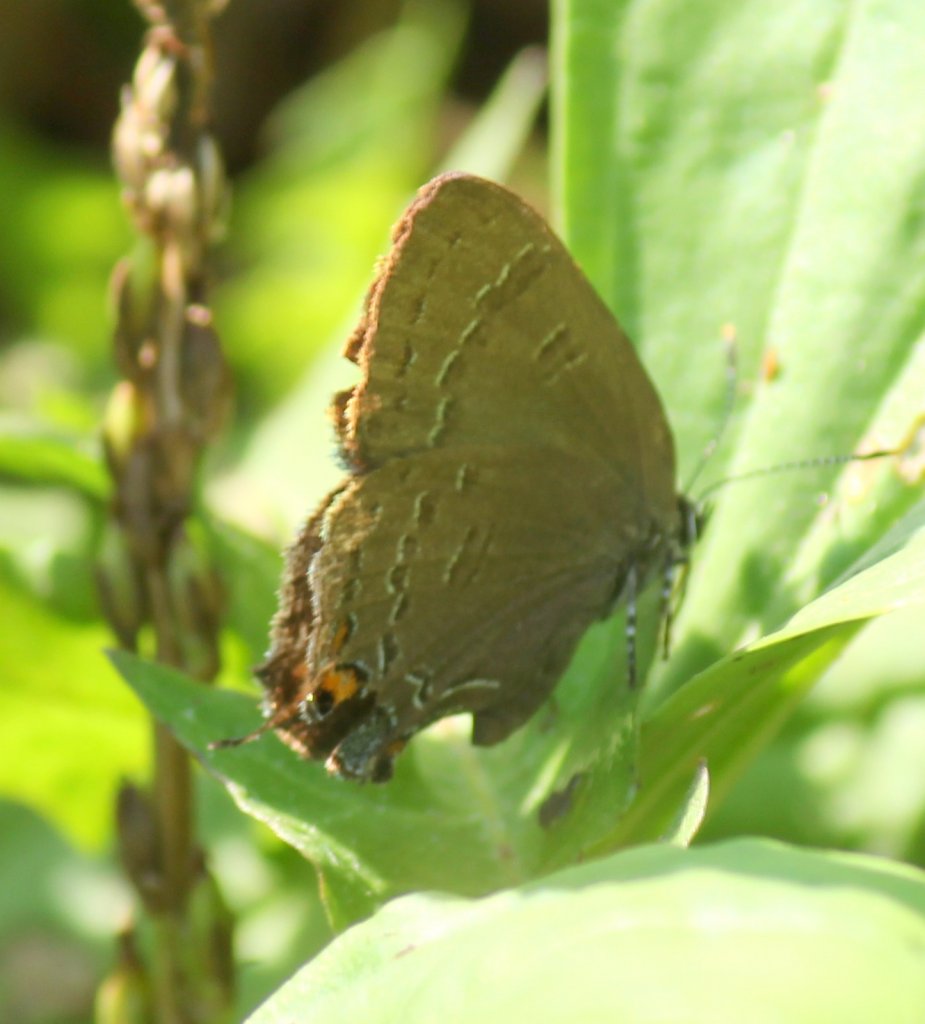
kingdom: Animalia
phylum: Arthropoda
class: Insecta
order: Lepidoptera
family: Lycaenidae
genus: Satyrium
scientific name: Satyrium calanus
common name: Banded Hairstreak
